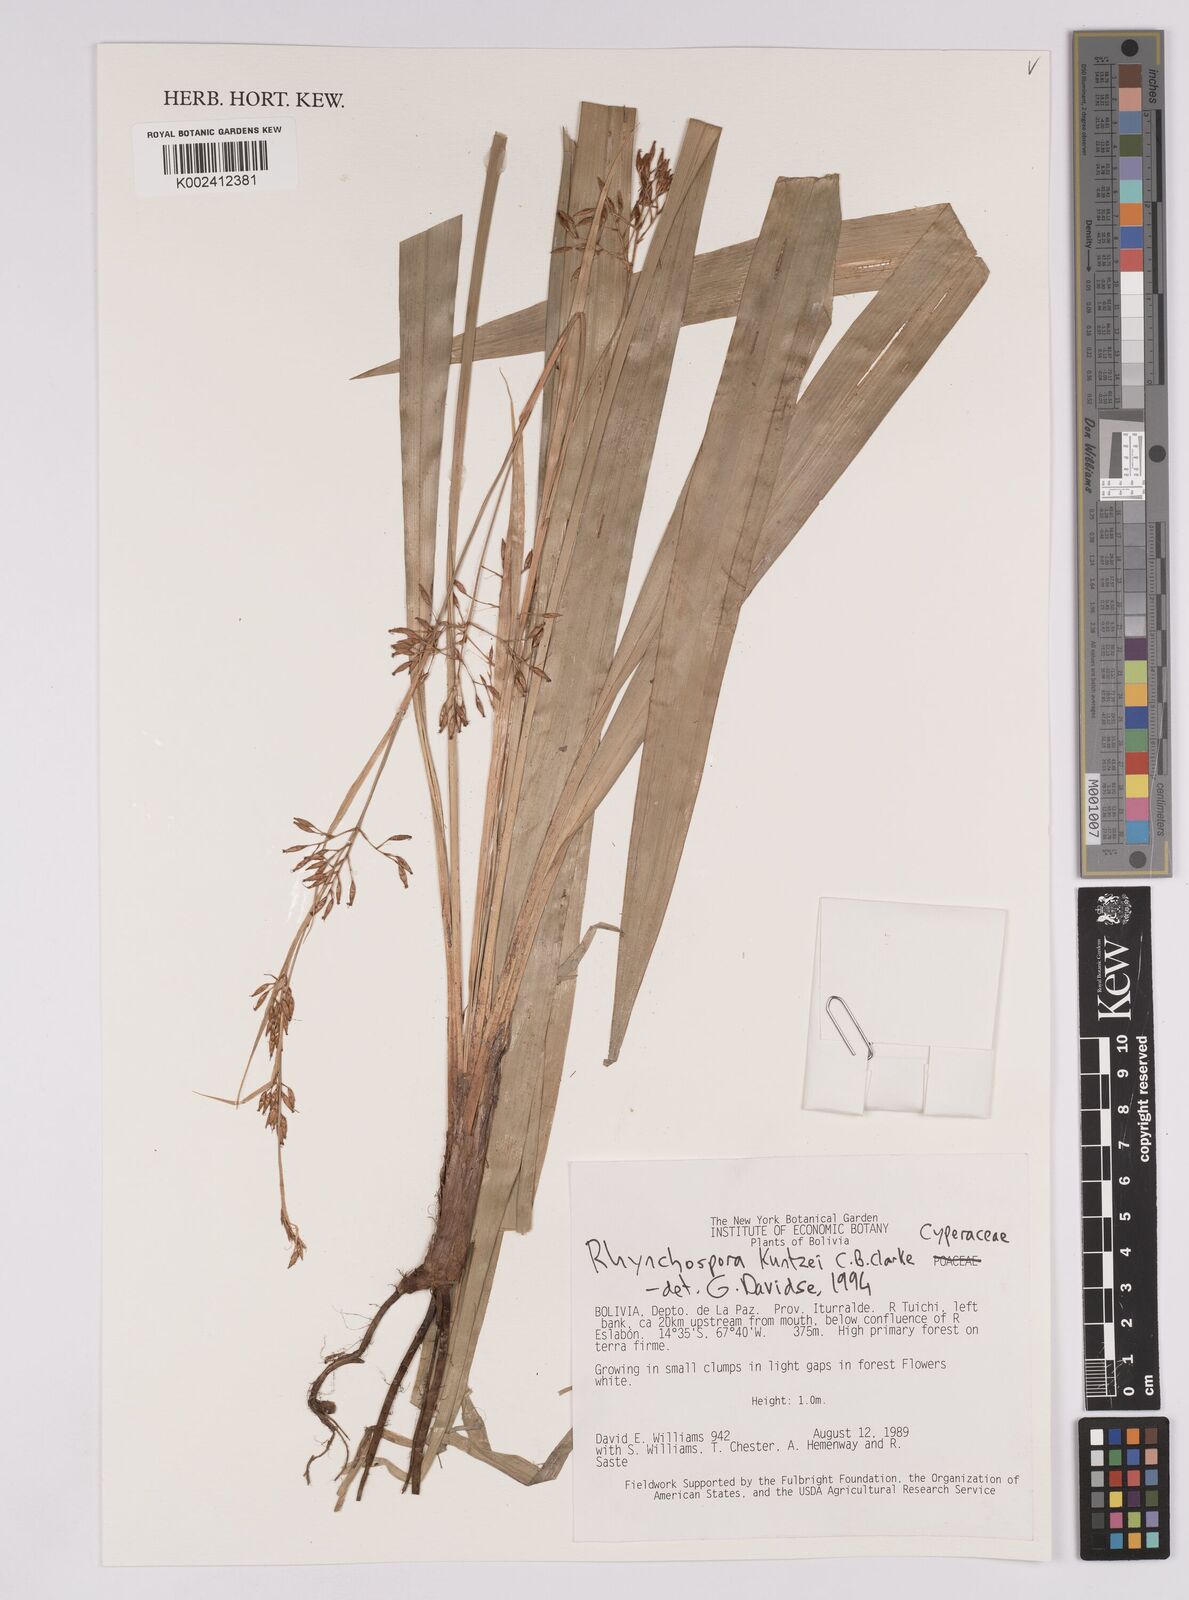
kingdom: Plantae
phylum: Tracheophyta
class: Liliopsida
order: Poales
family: Cyperaceae
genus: Rhynchospora
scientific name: Rhynchospora umbraticola
